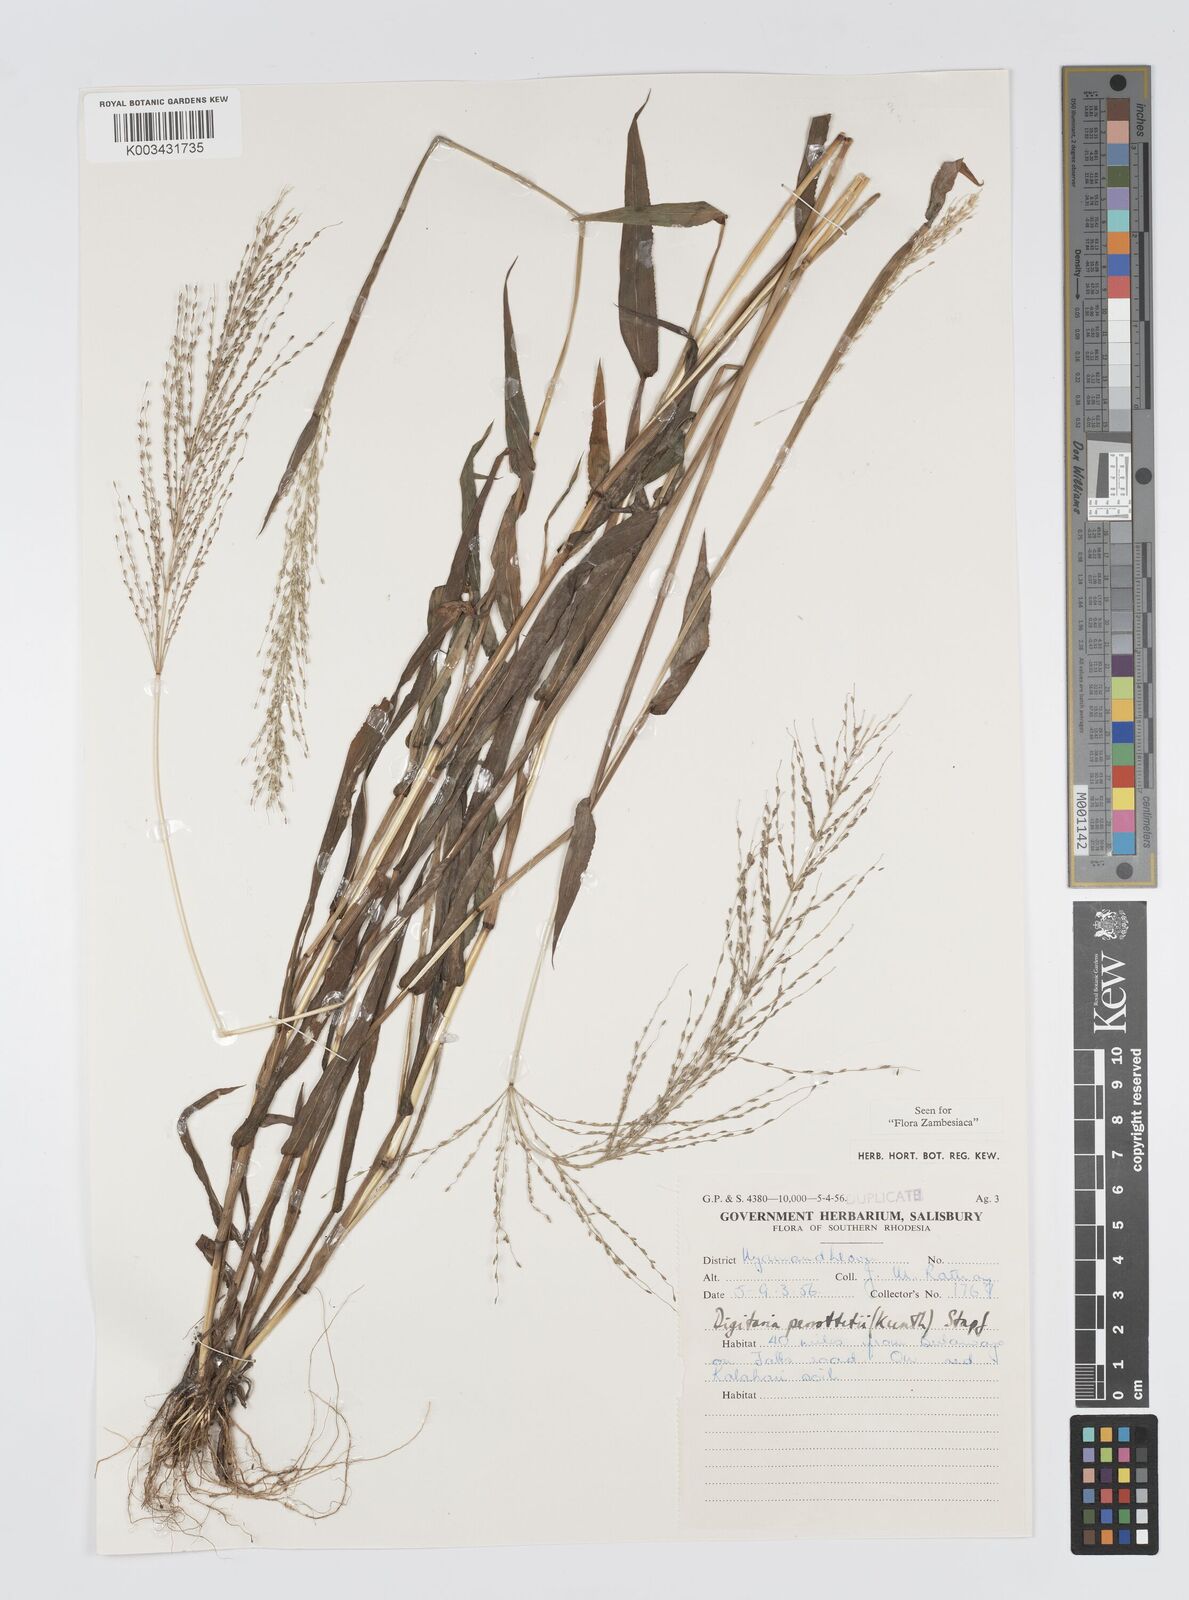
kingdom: Plantae
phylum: Tracheophyta
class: Liliopsida
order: Poales
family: Poaceae
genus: Digitaria
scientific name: Digitaria perrottetii
